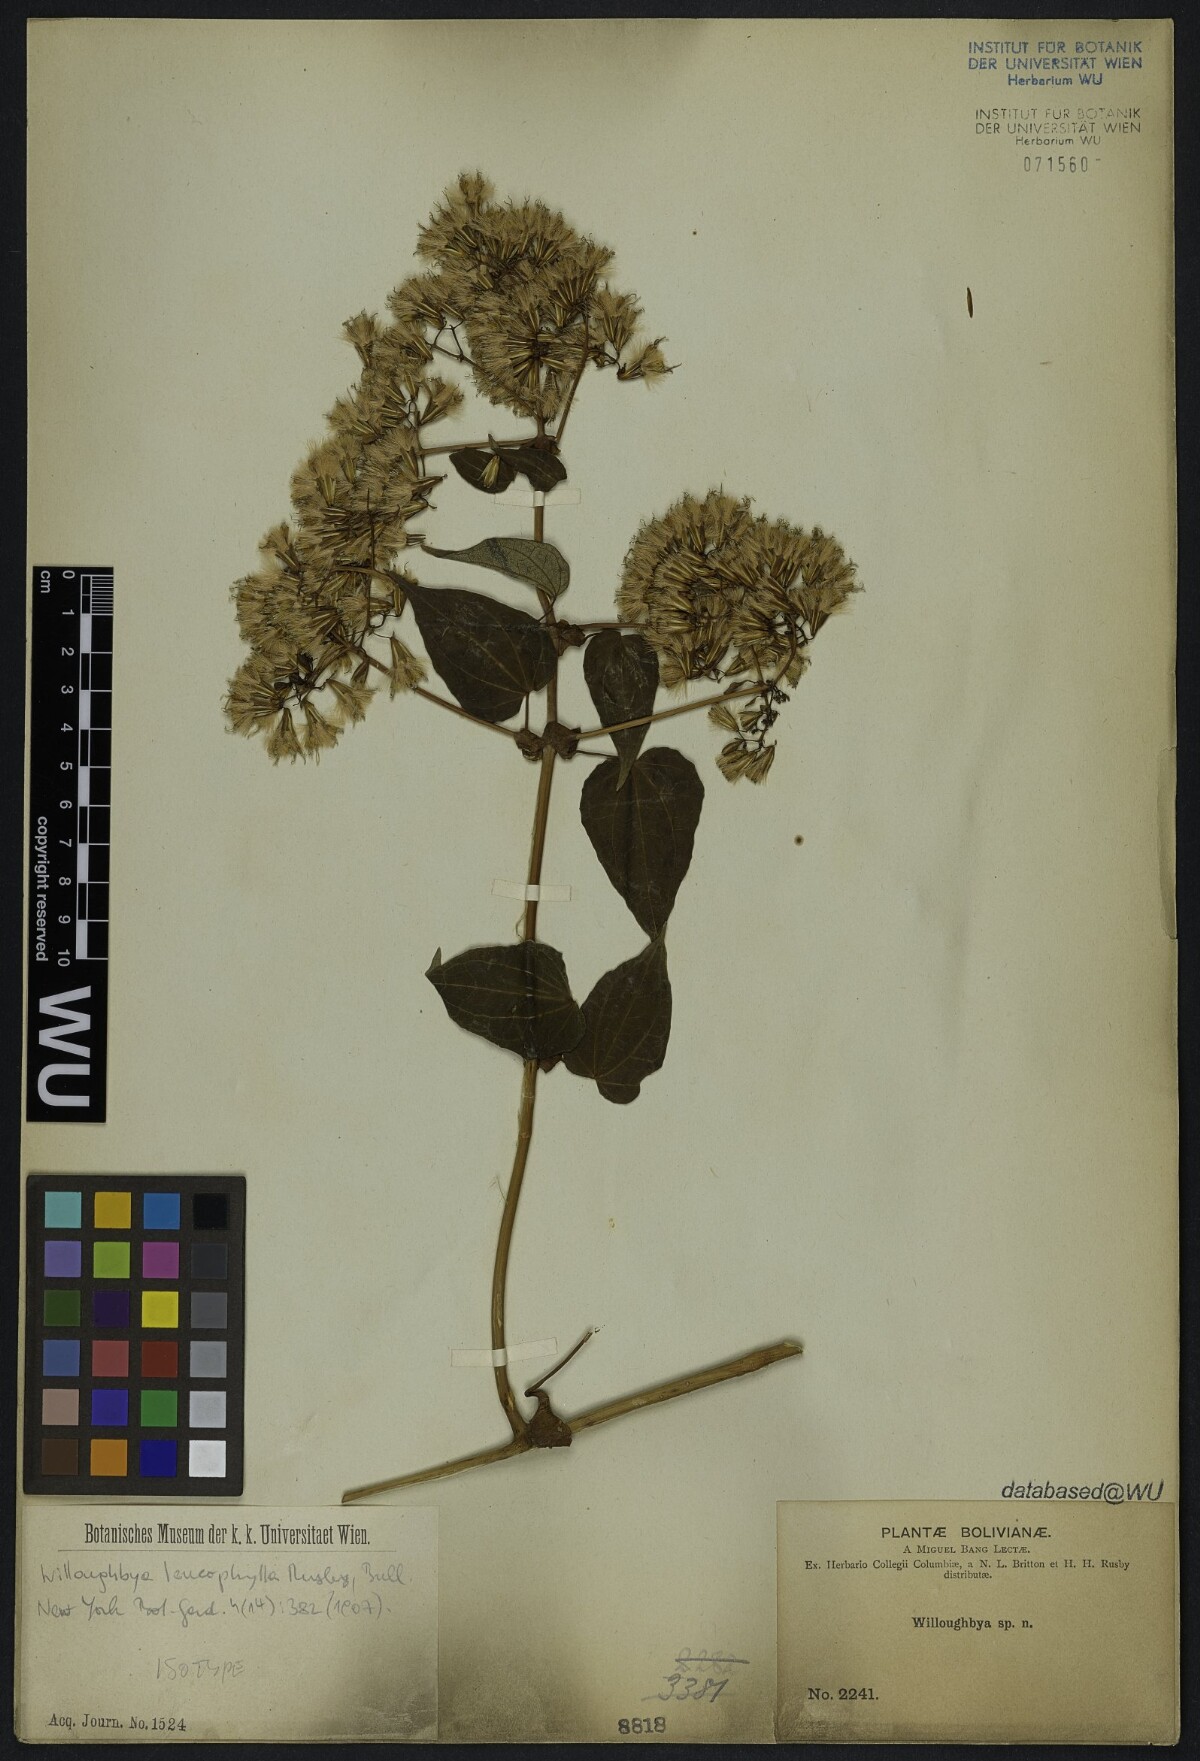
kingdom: Plantae
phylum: Tracheophyta
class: Magnoliopsida
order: Asterales
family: Asteraceae
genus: Mikania
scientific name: Mikania leucophylla
